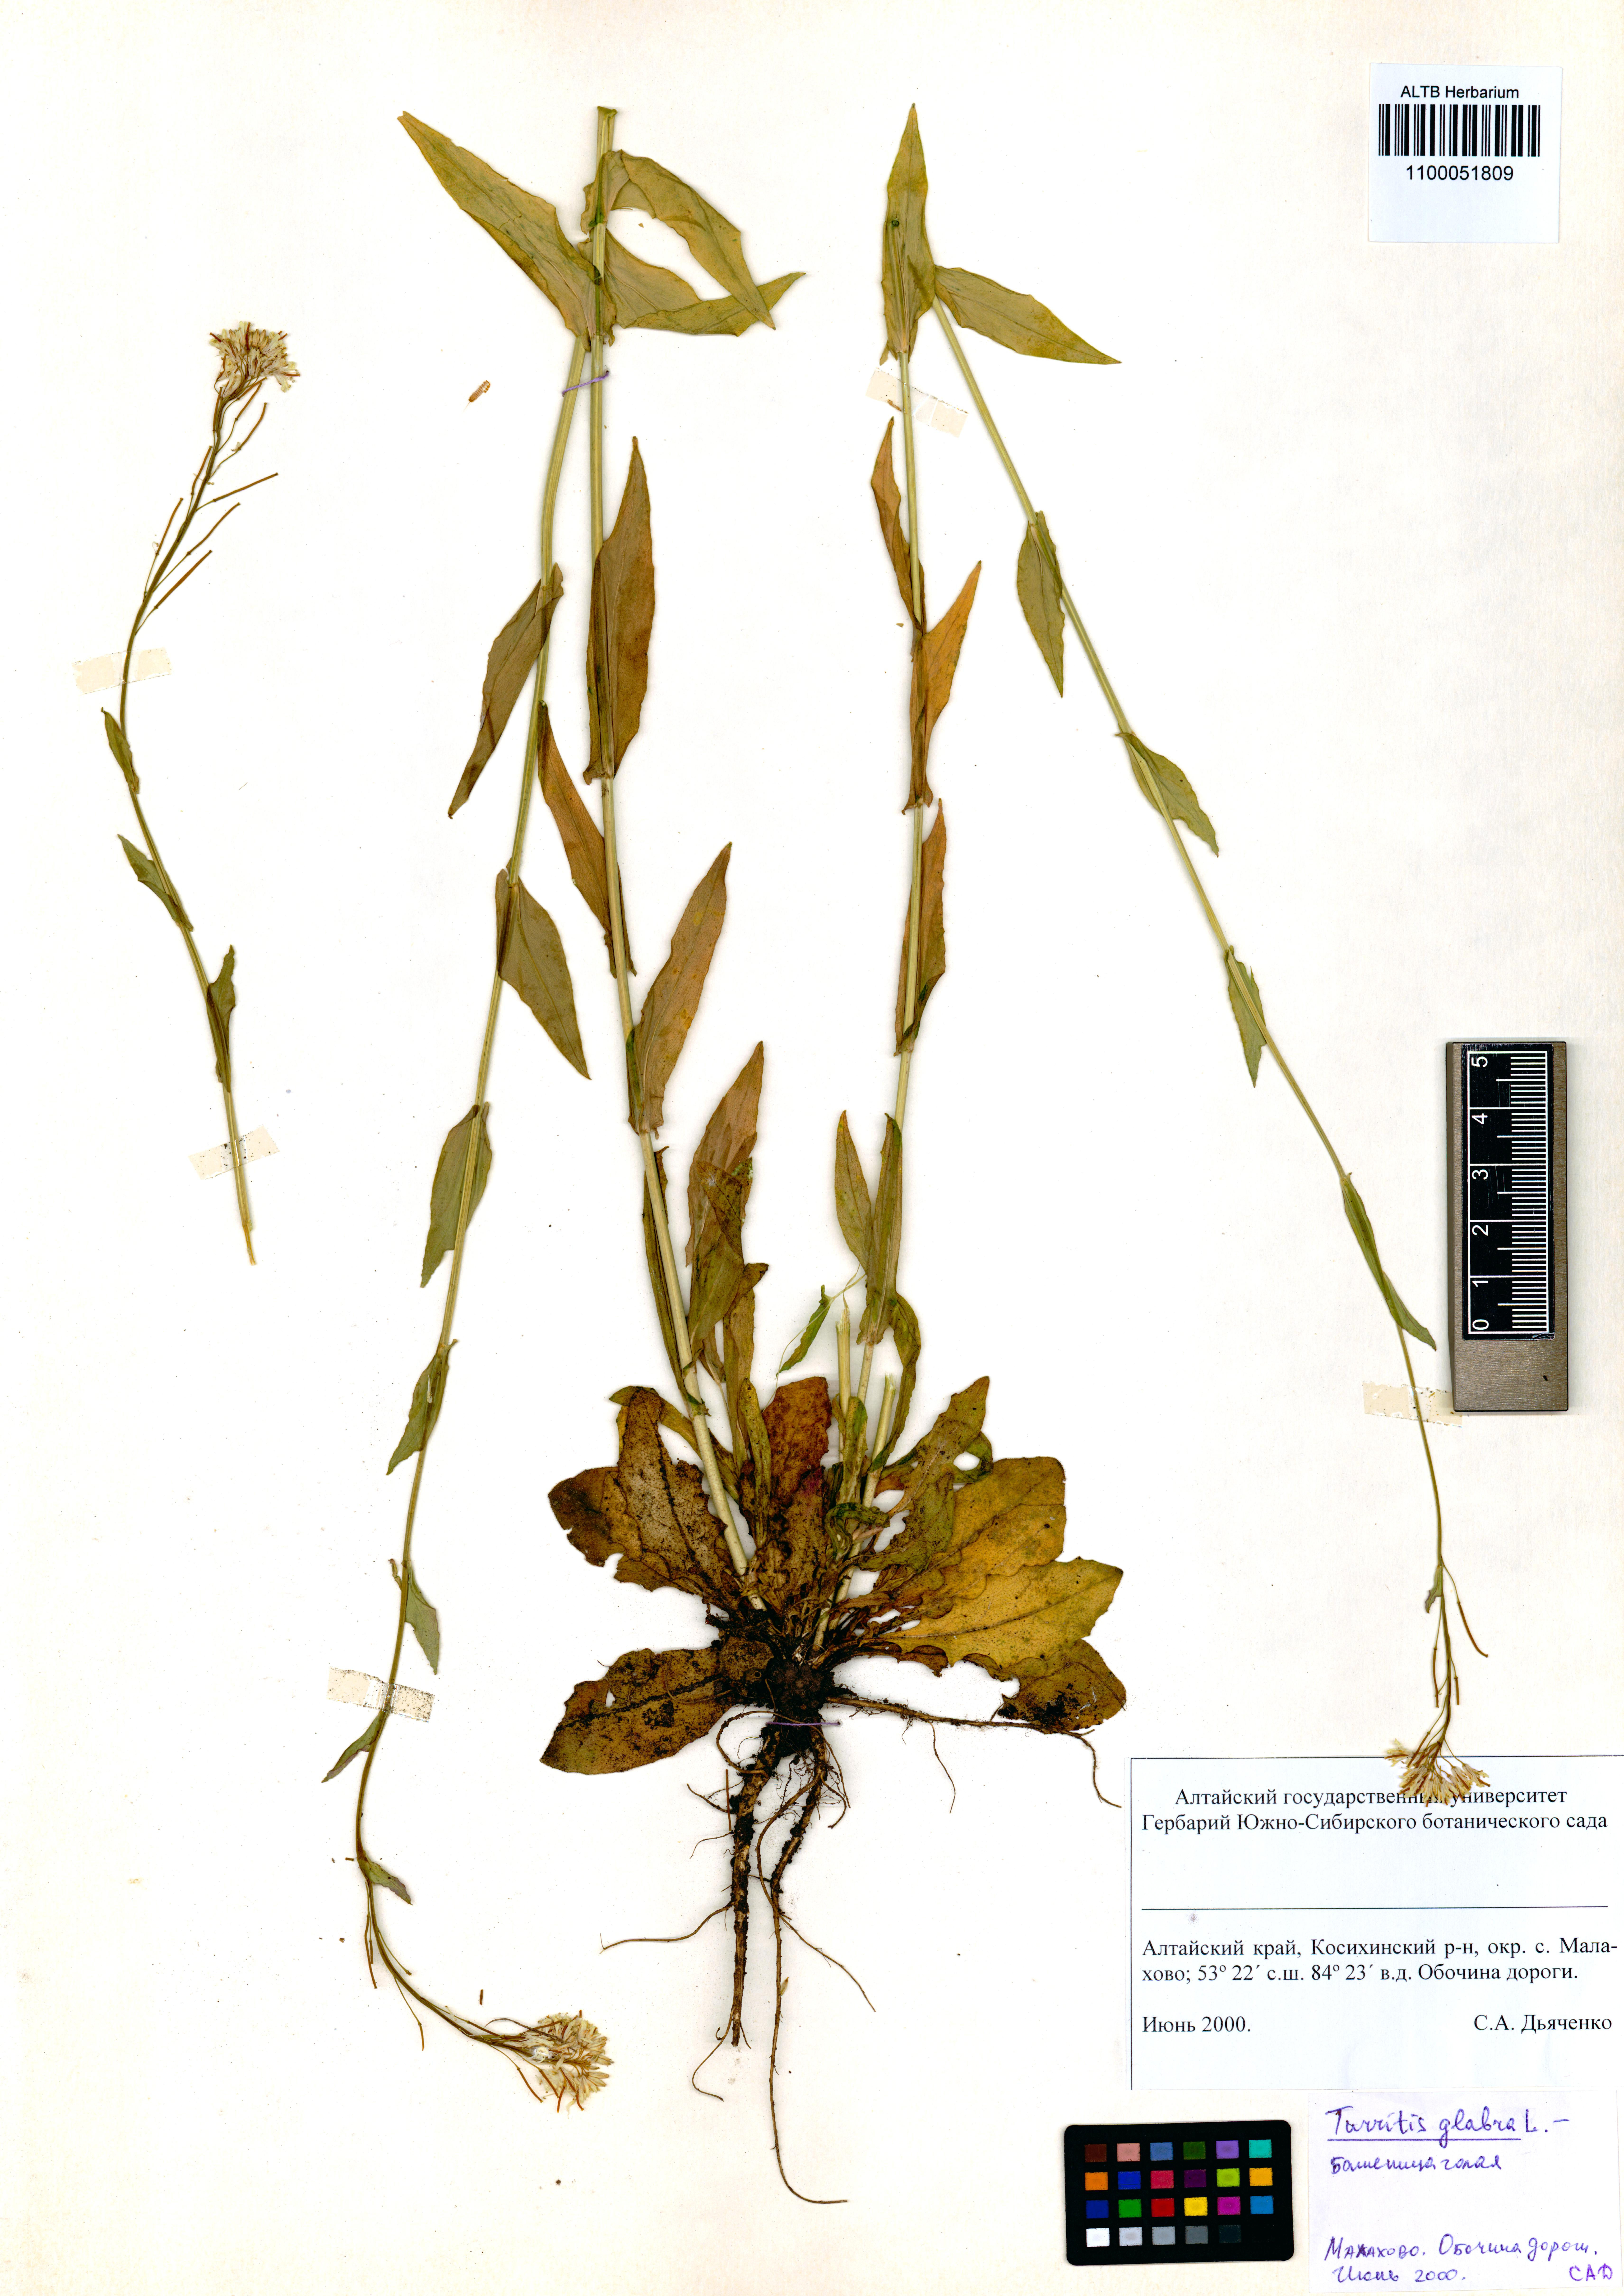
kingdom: Plantae
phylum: Tracheophyta
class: Magnoliopsida
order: Brassicales
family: Brassicaceae
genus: Turritis
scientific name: Turritis glabra
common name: Tower rockcress
